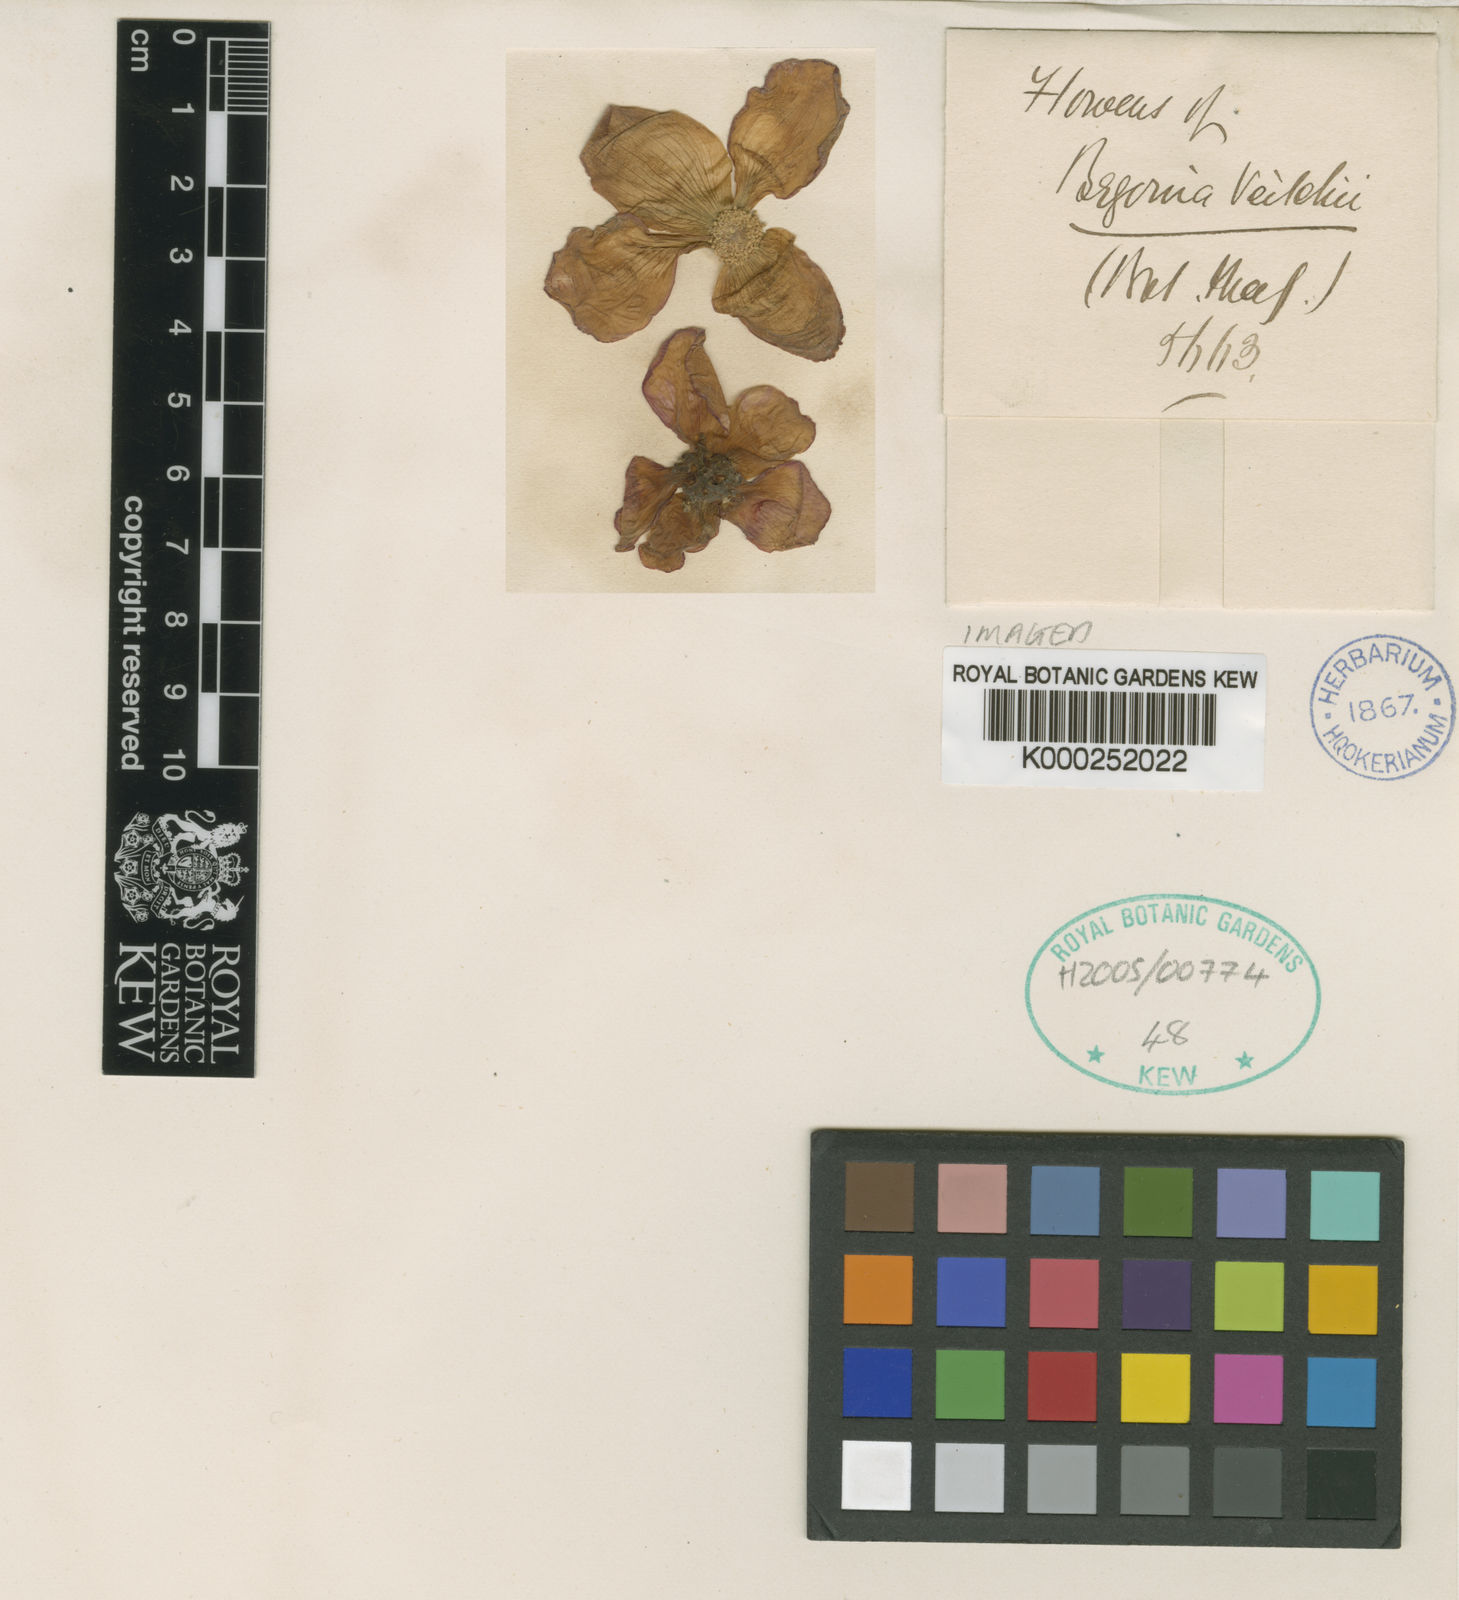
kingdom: Plantae
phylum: Tracheophyta
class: Magnoliopsida
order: Cucurbitales
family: Begoniaceae
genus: Begonia
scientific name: Begonia veitchii
